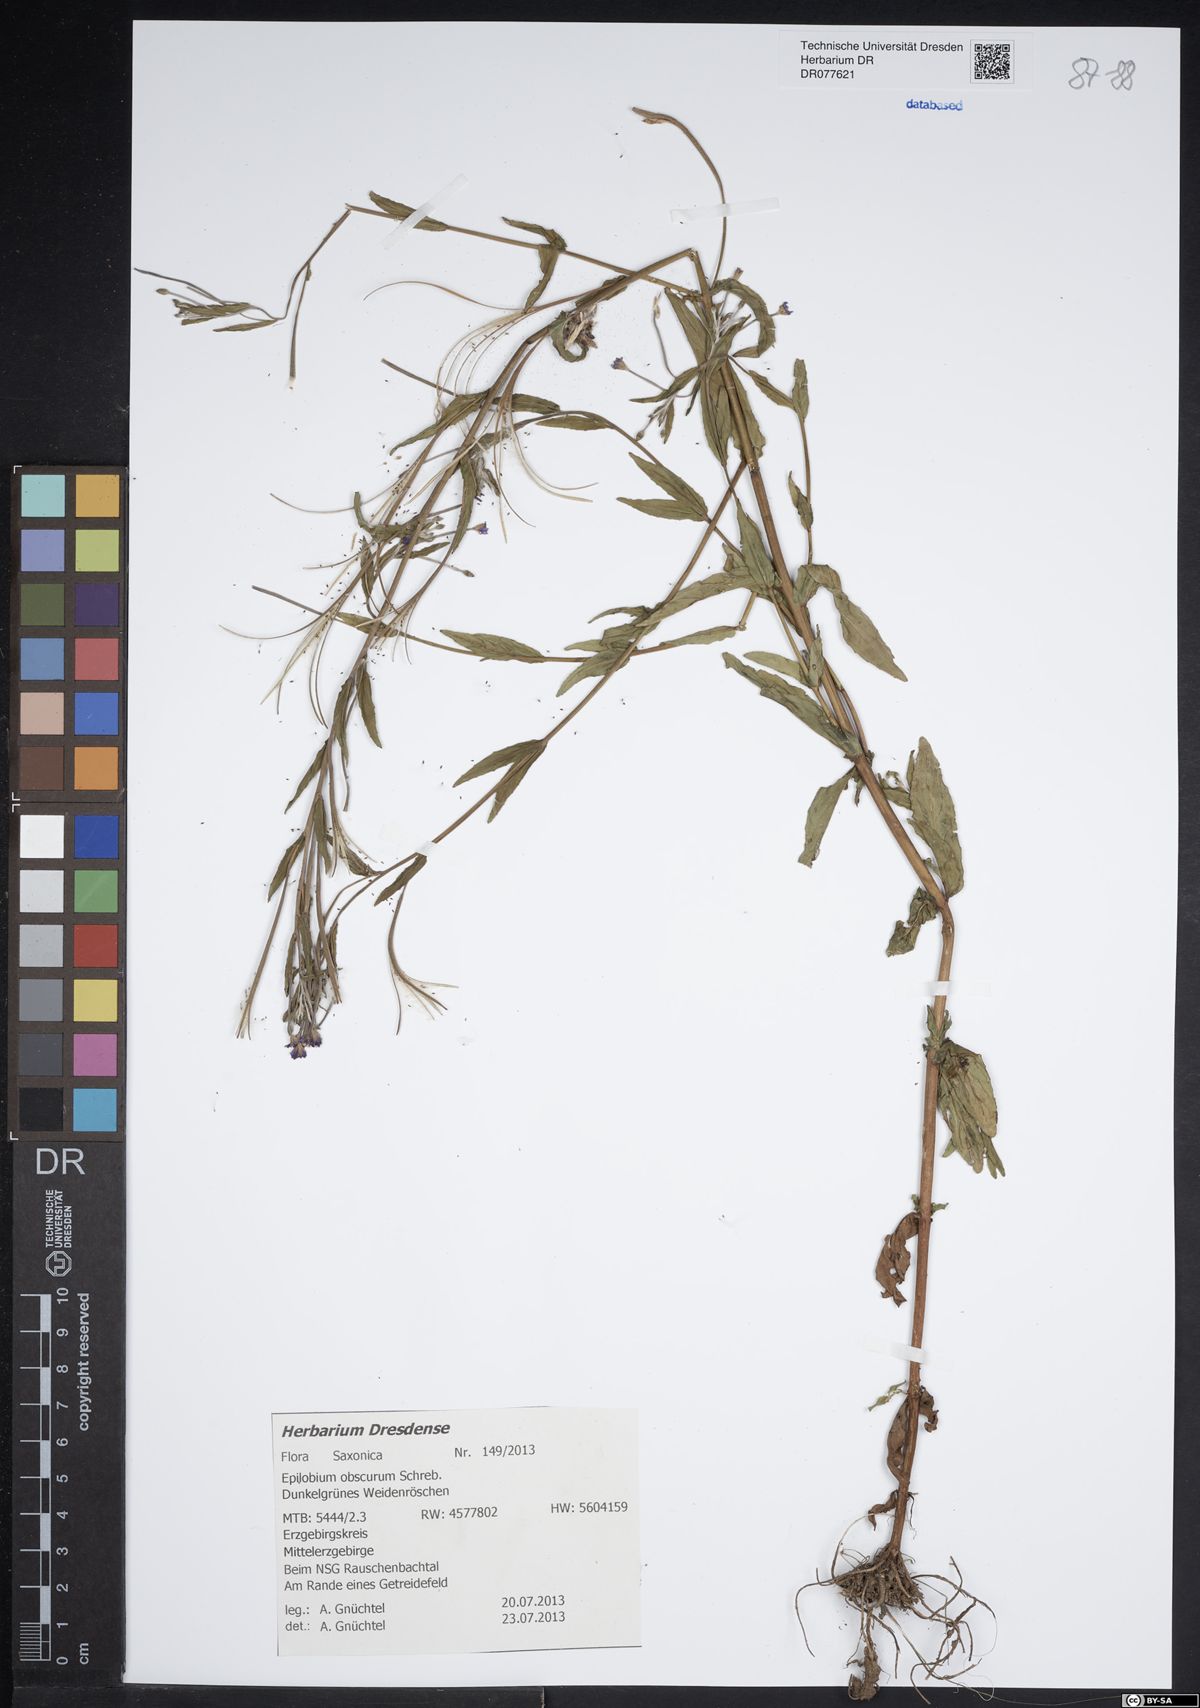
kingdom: Plantae
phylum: Tracheophyta
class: Magnoliopsida
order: Myrtales
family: Onagraceae
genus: Epilobium
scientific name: Epilobium obscurum
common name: Short-fruited willowherb
